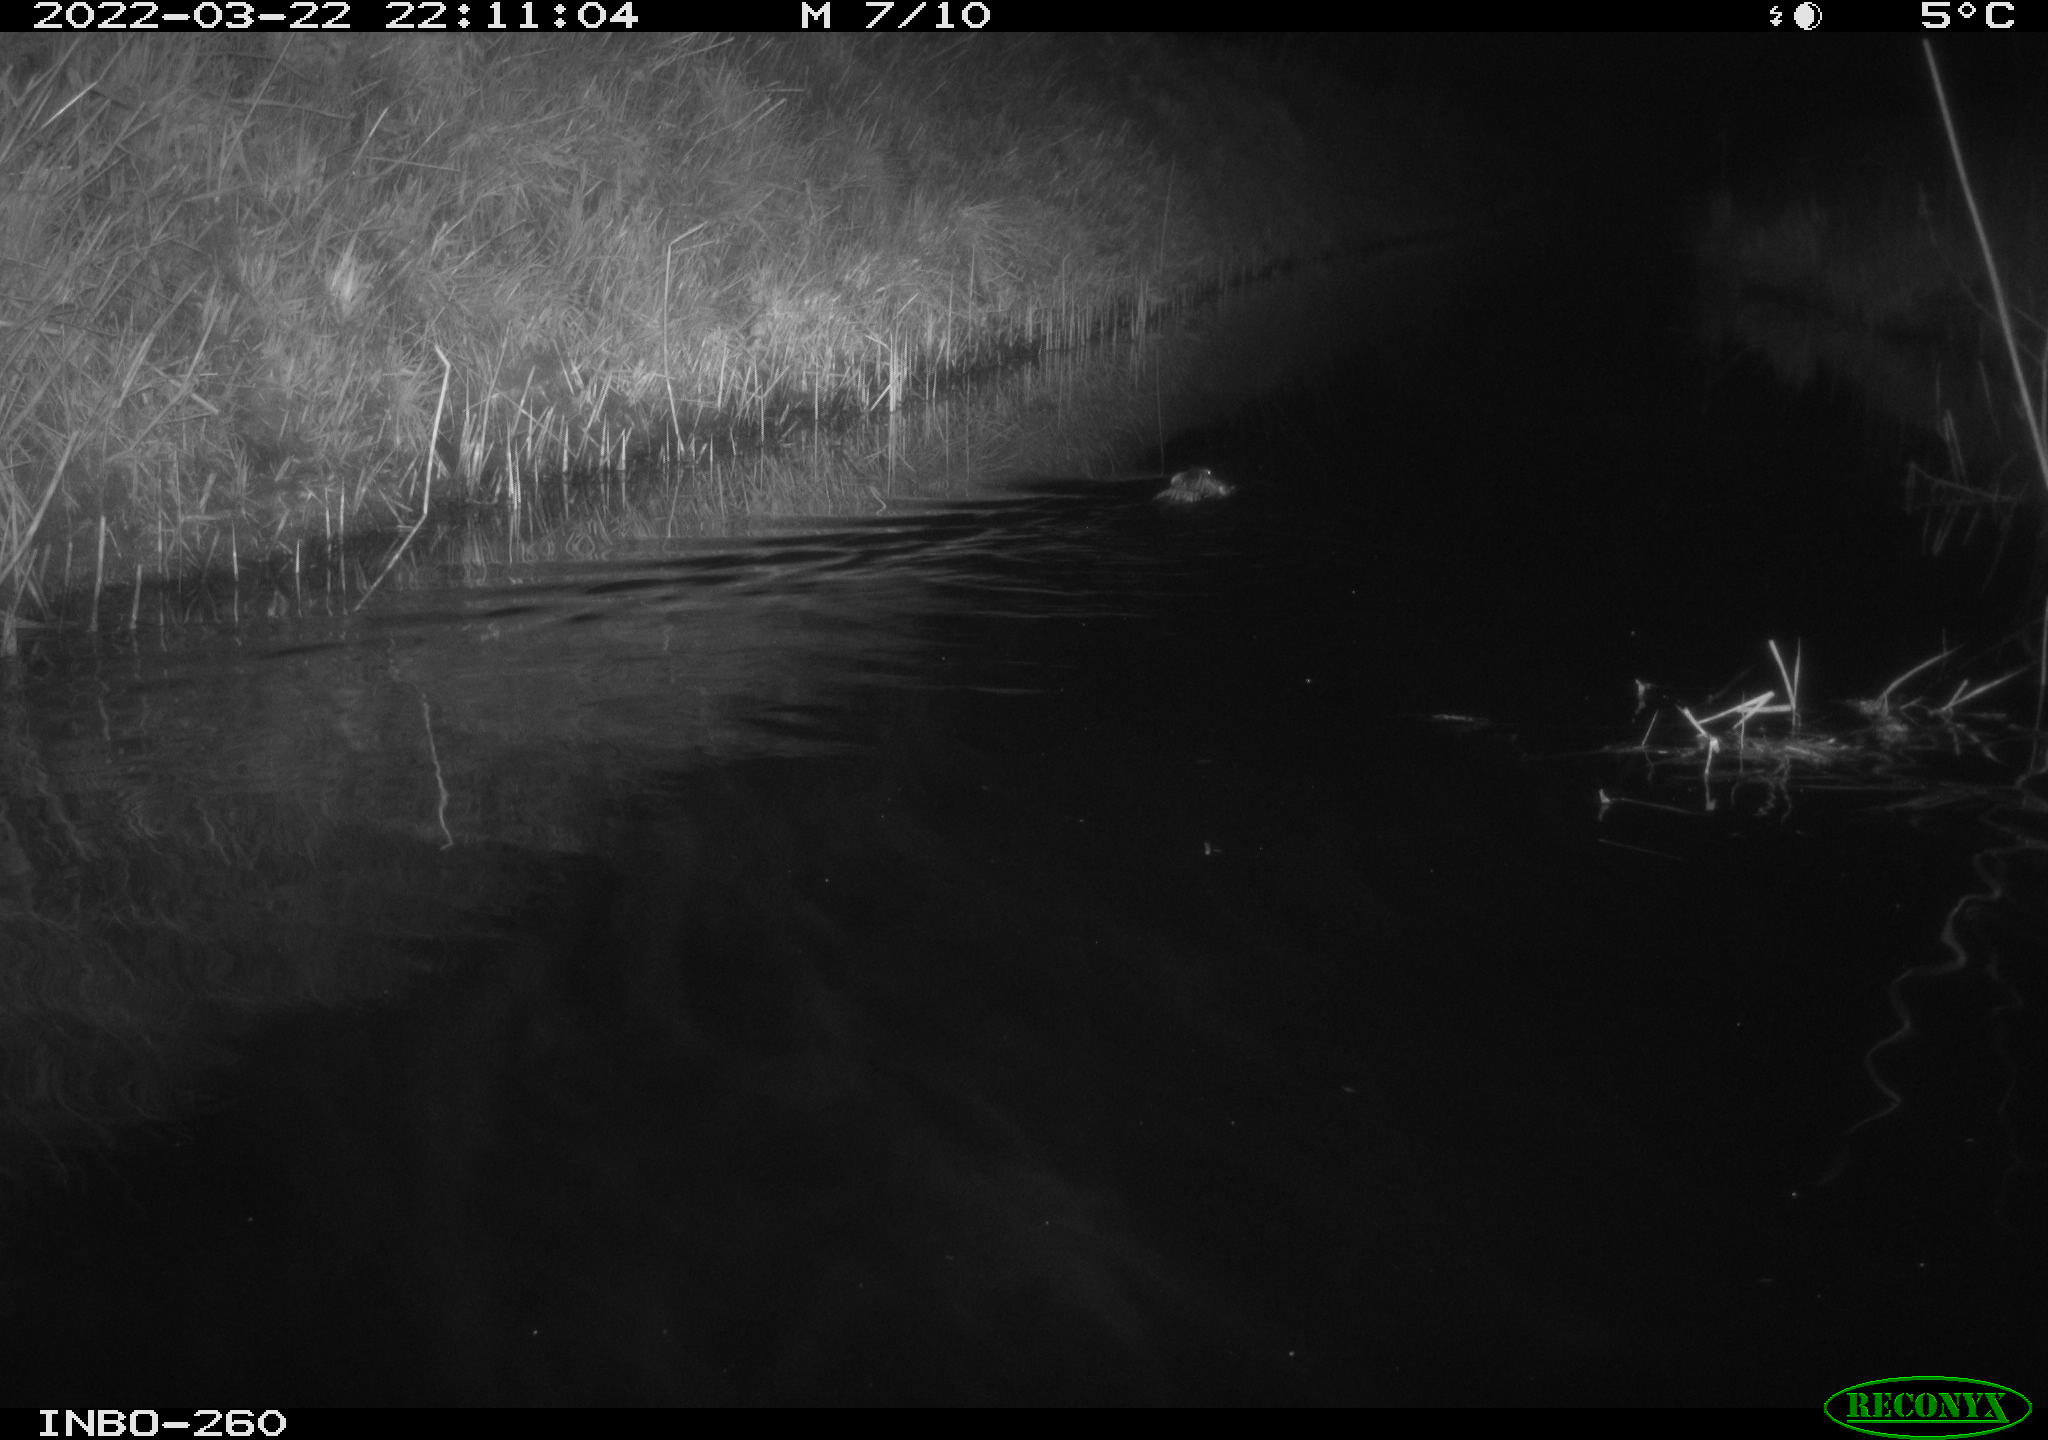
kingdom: Animalia
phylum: Chordata
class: Mammalia
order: Rodentia
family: Cricetidae
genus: Ondatra
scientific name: Ondatra zibethicus
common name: Muskrat
